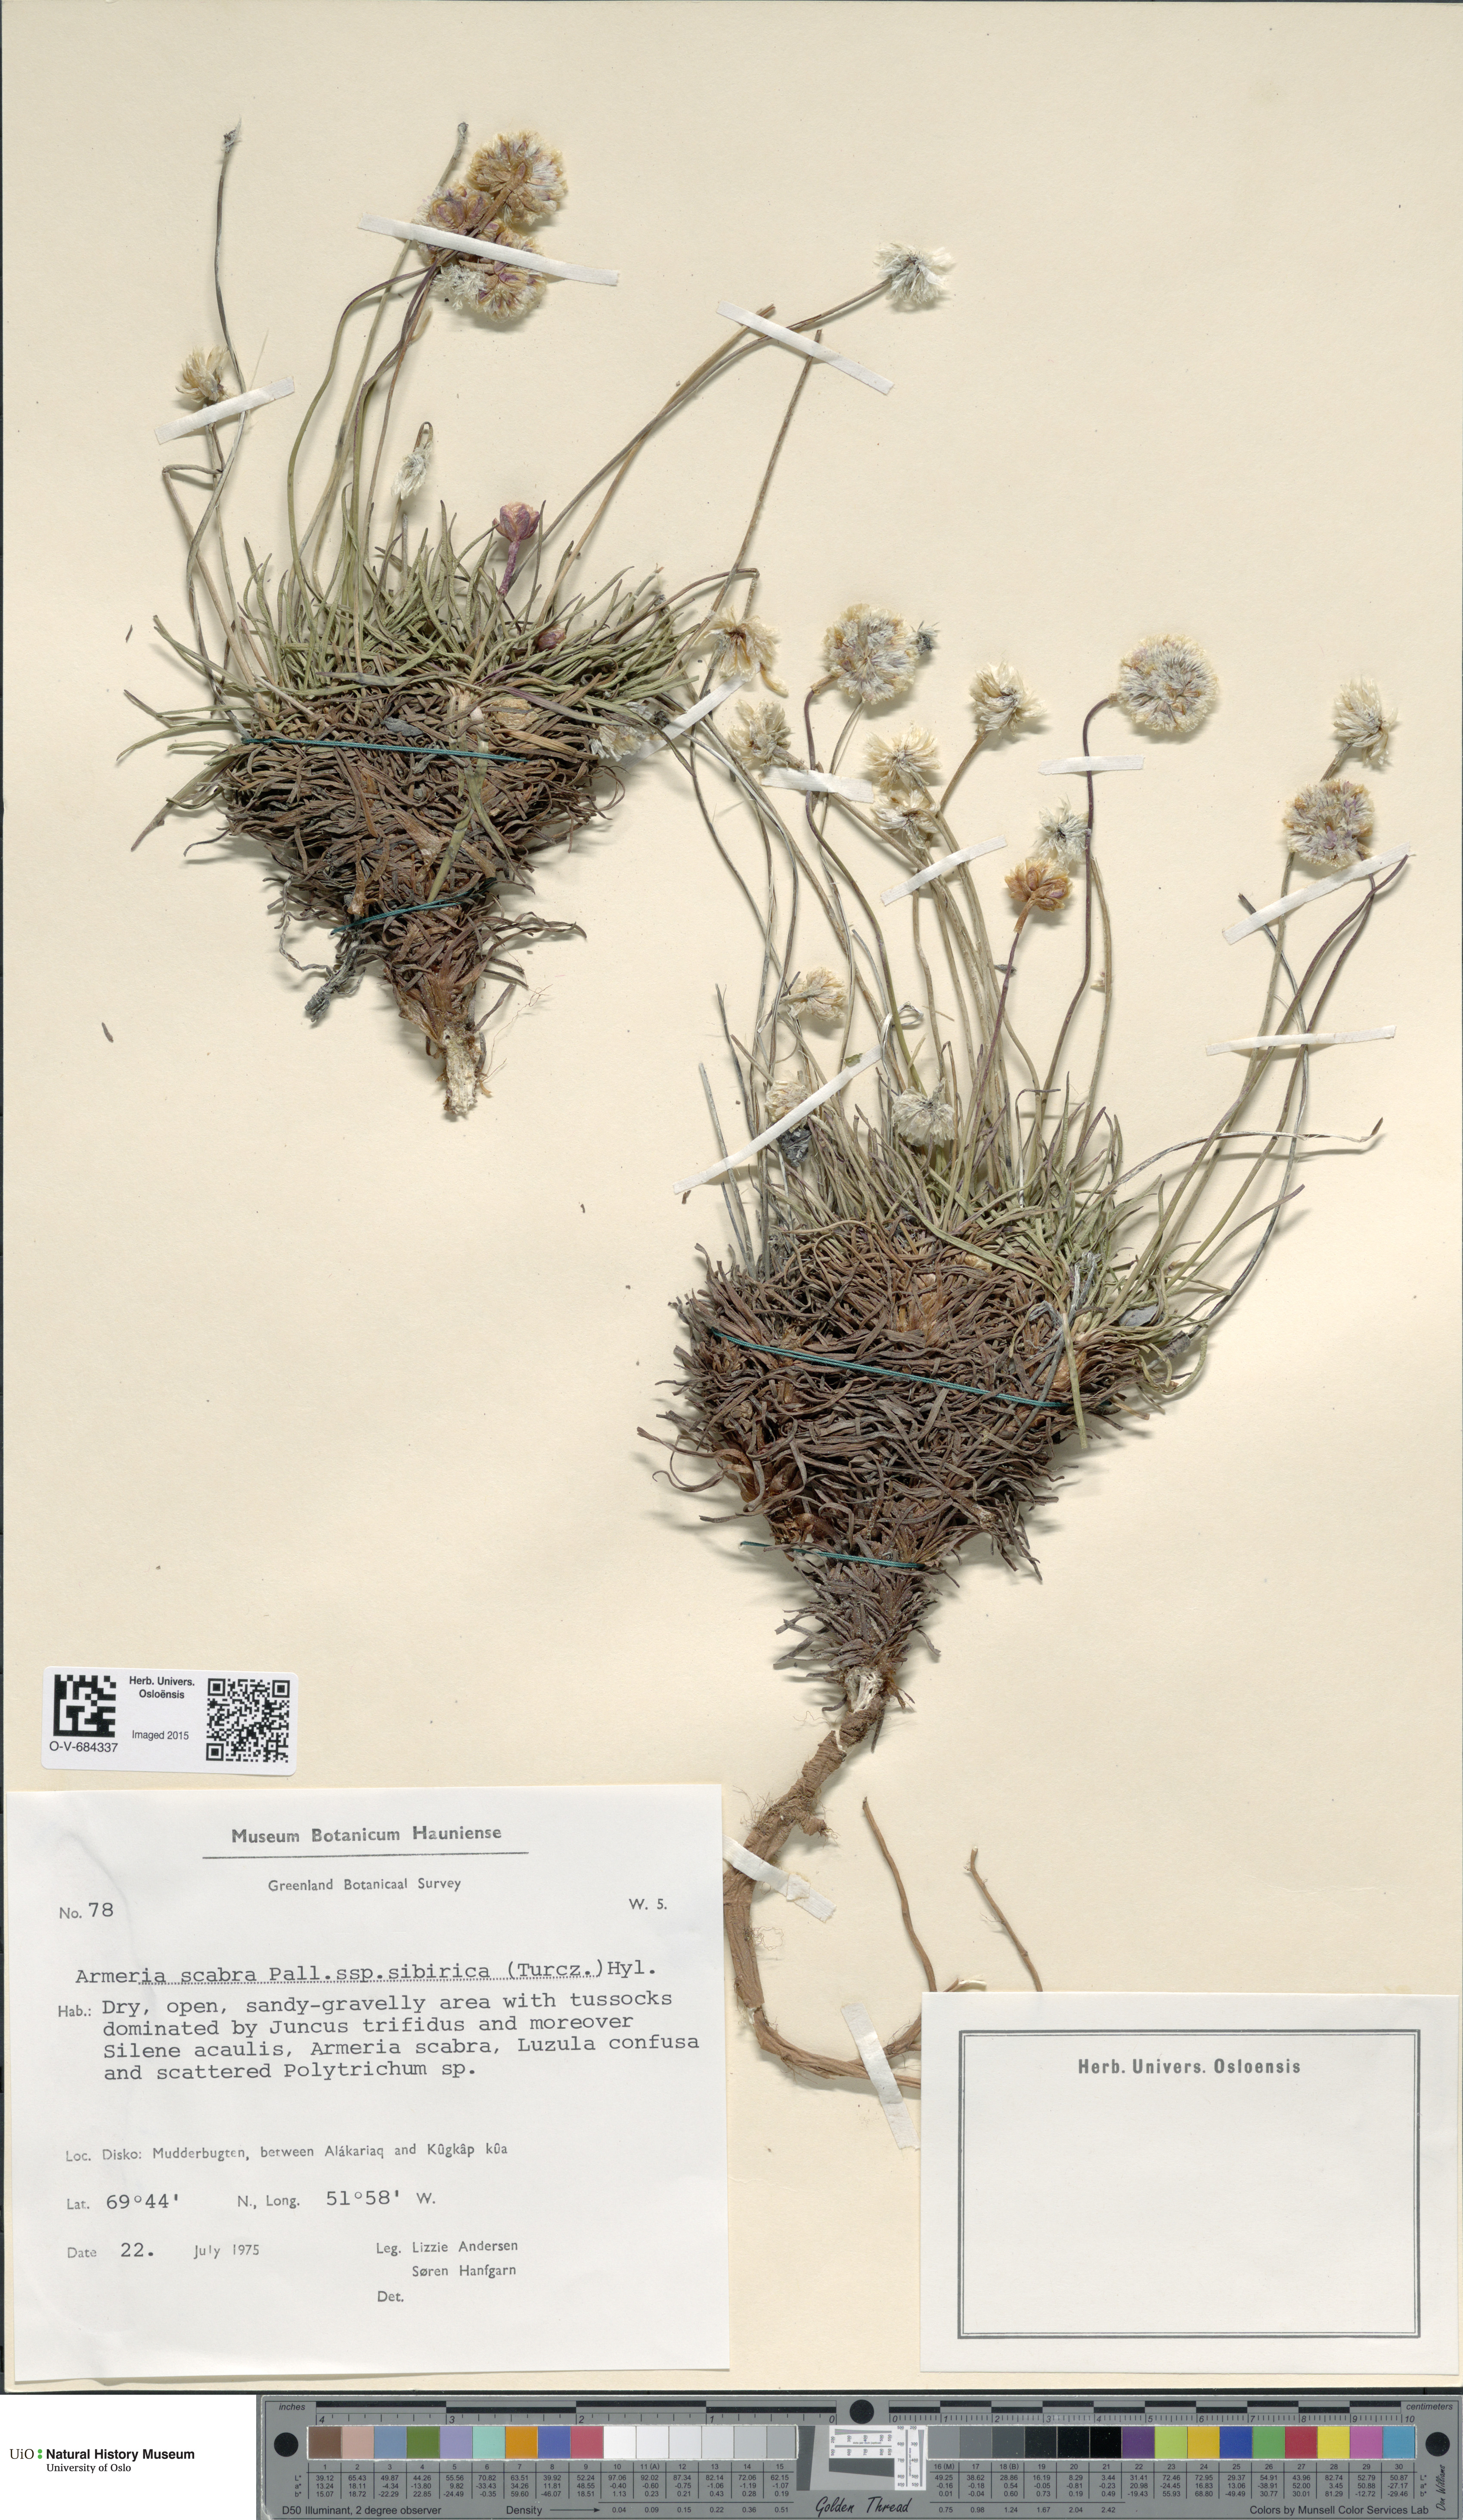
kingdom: Plantae
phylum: Tracheophyta
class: Magnoliopsida
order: Caryophyllales
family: Plumbaginaceae
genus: Armeria
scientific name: Armeria maritima
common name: Thrift
